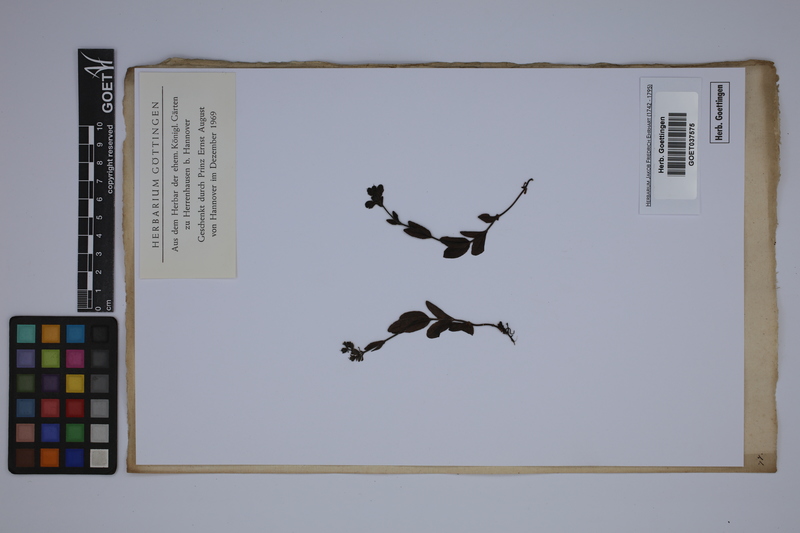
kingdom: Plantae
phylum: Tracheophyta
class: Magnoliopsida
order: Lamiales
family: Plantaginaceae
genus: Veronica
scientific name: Veronica alpina
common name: Alpine speedwell
